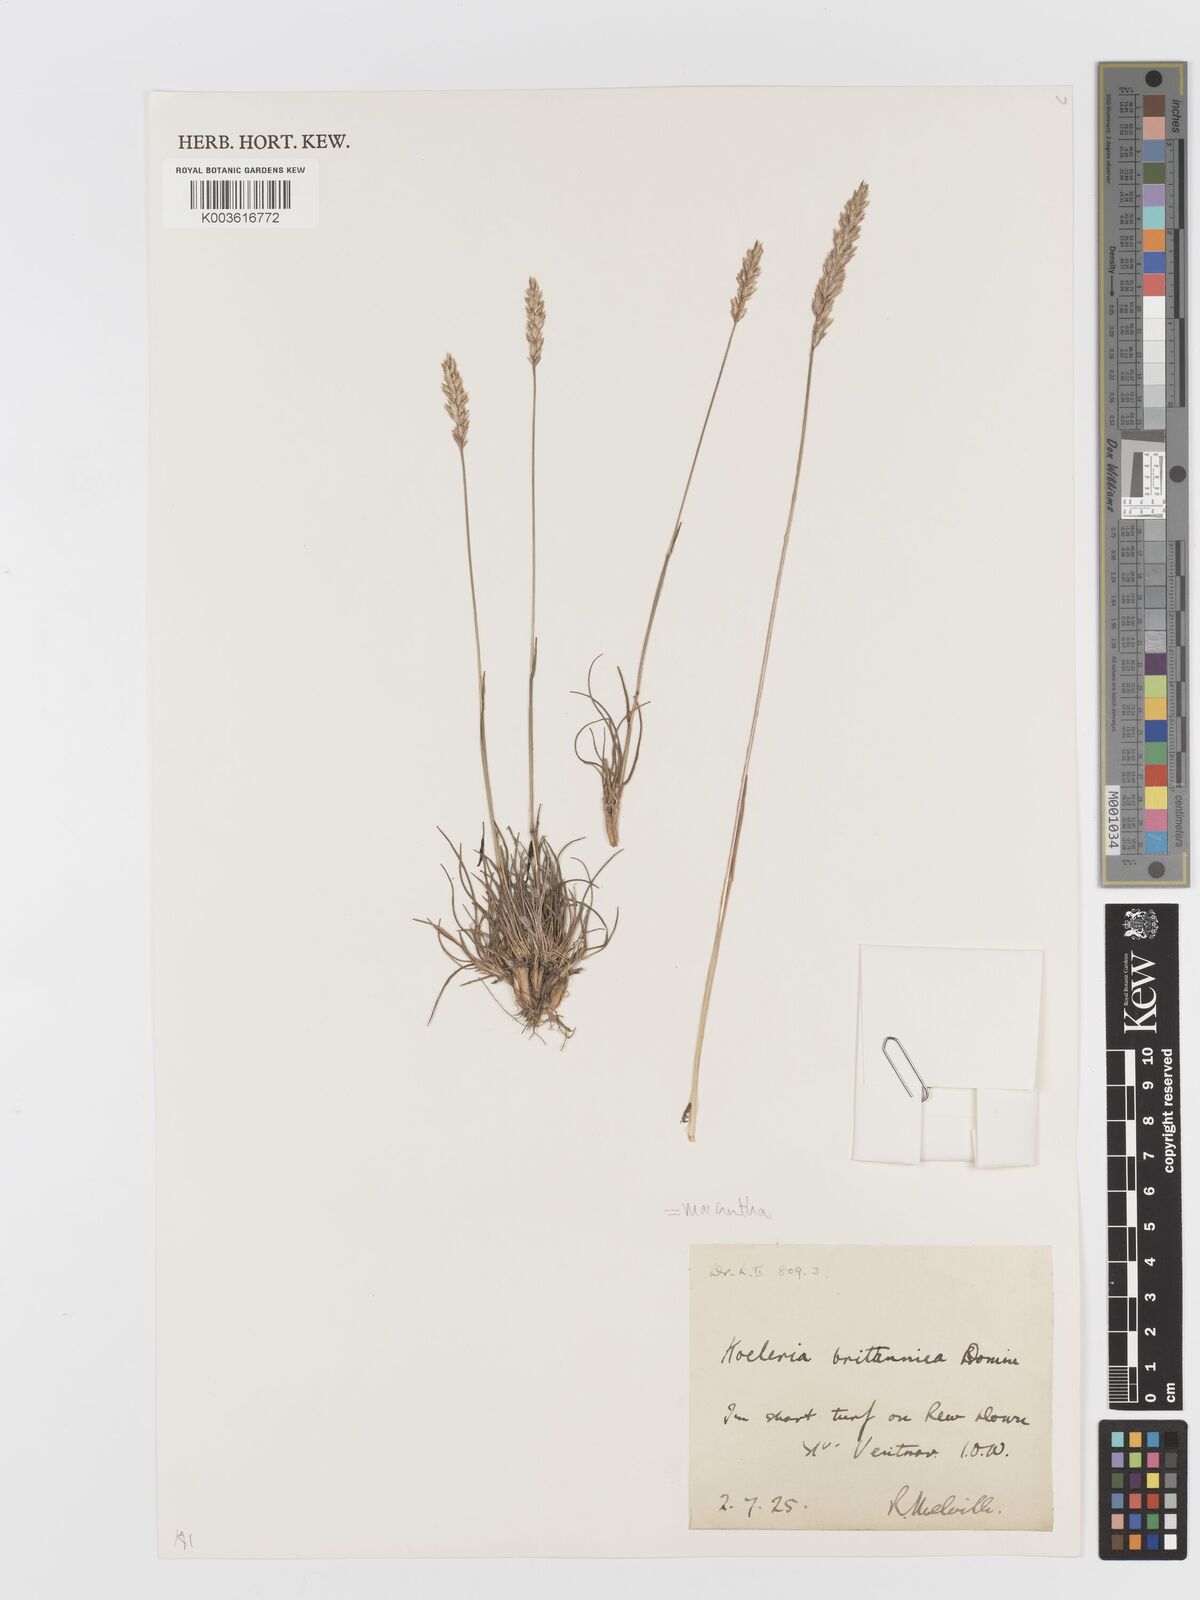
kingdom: Plantae
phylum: Tracheophyta
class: Liliopsida
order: Poales
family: Poaceae
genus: Koeleria
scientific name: Koeleria macrantha
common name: Crested hair-grass
